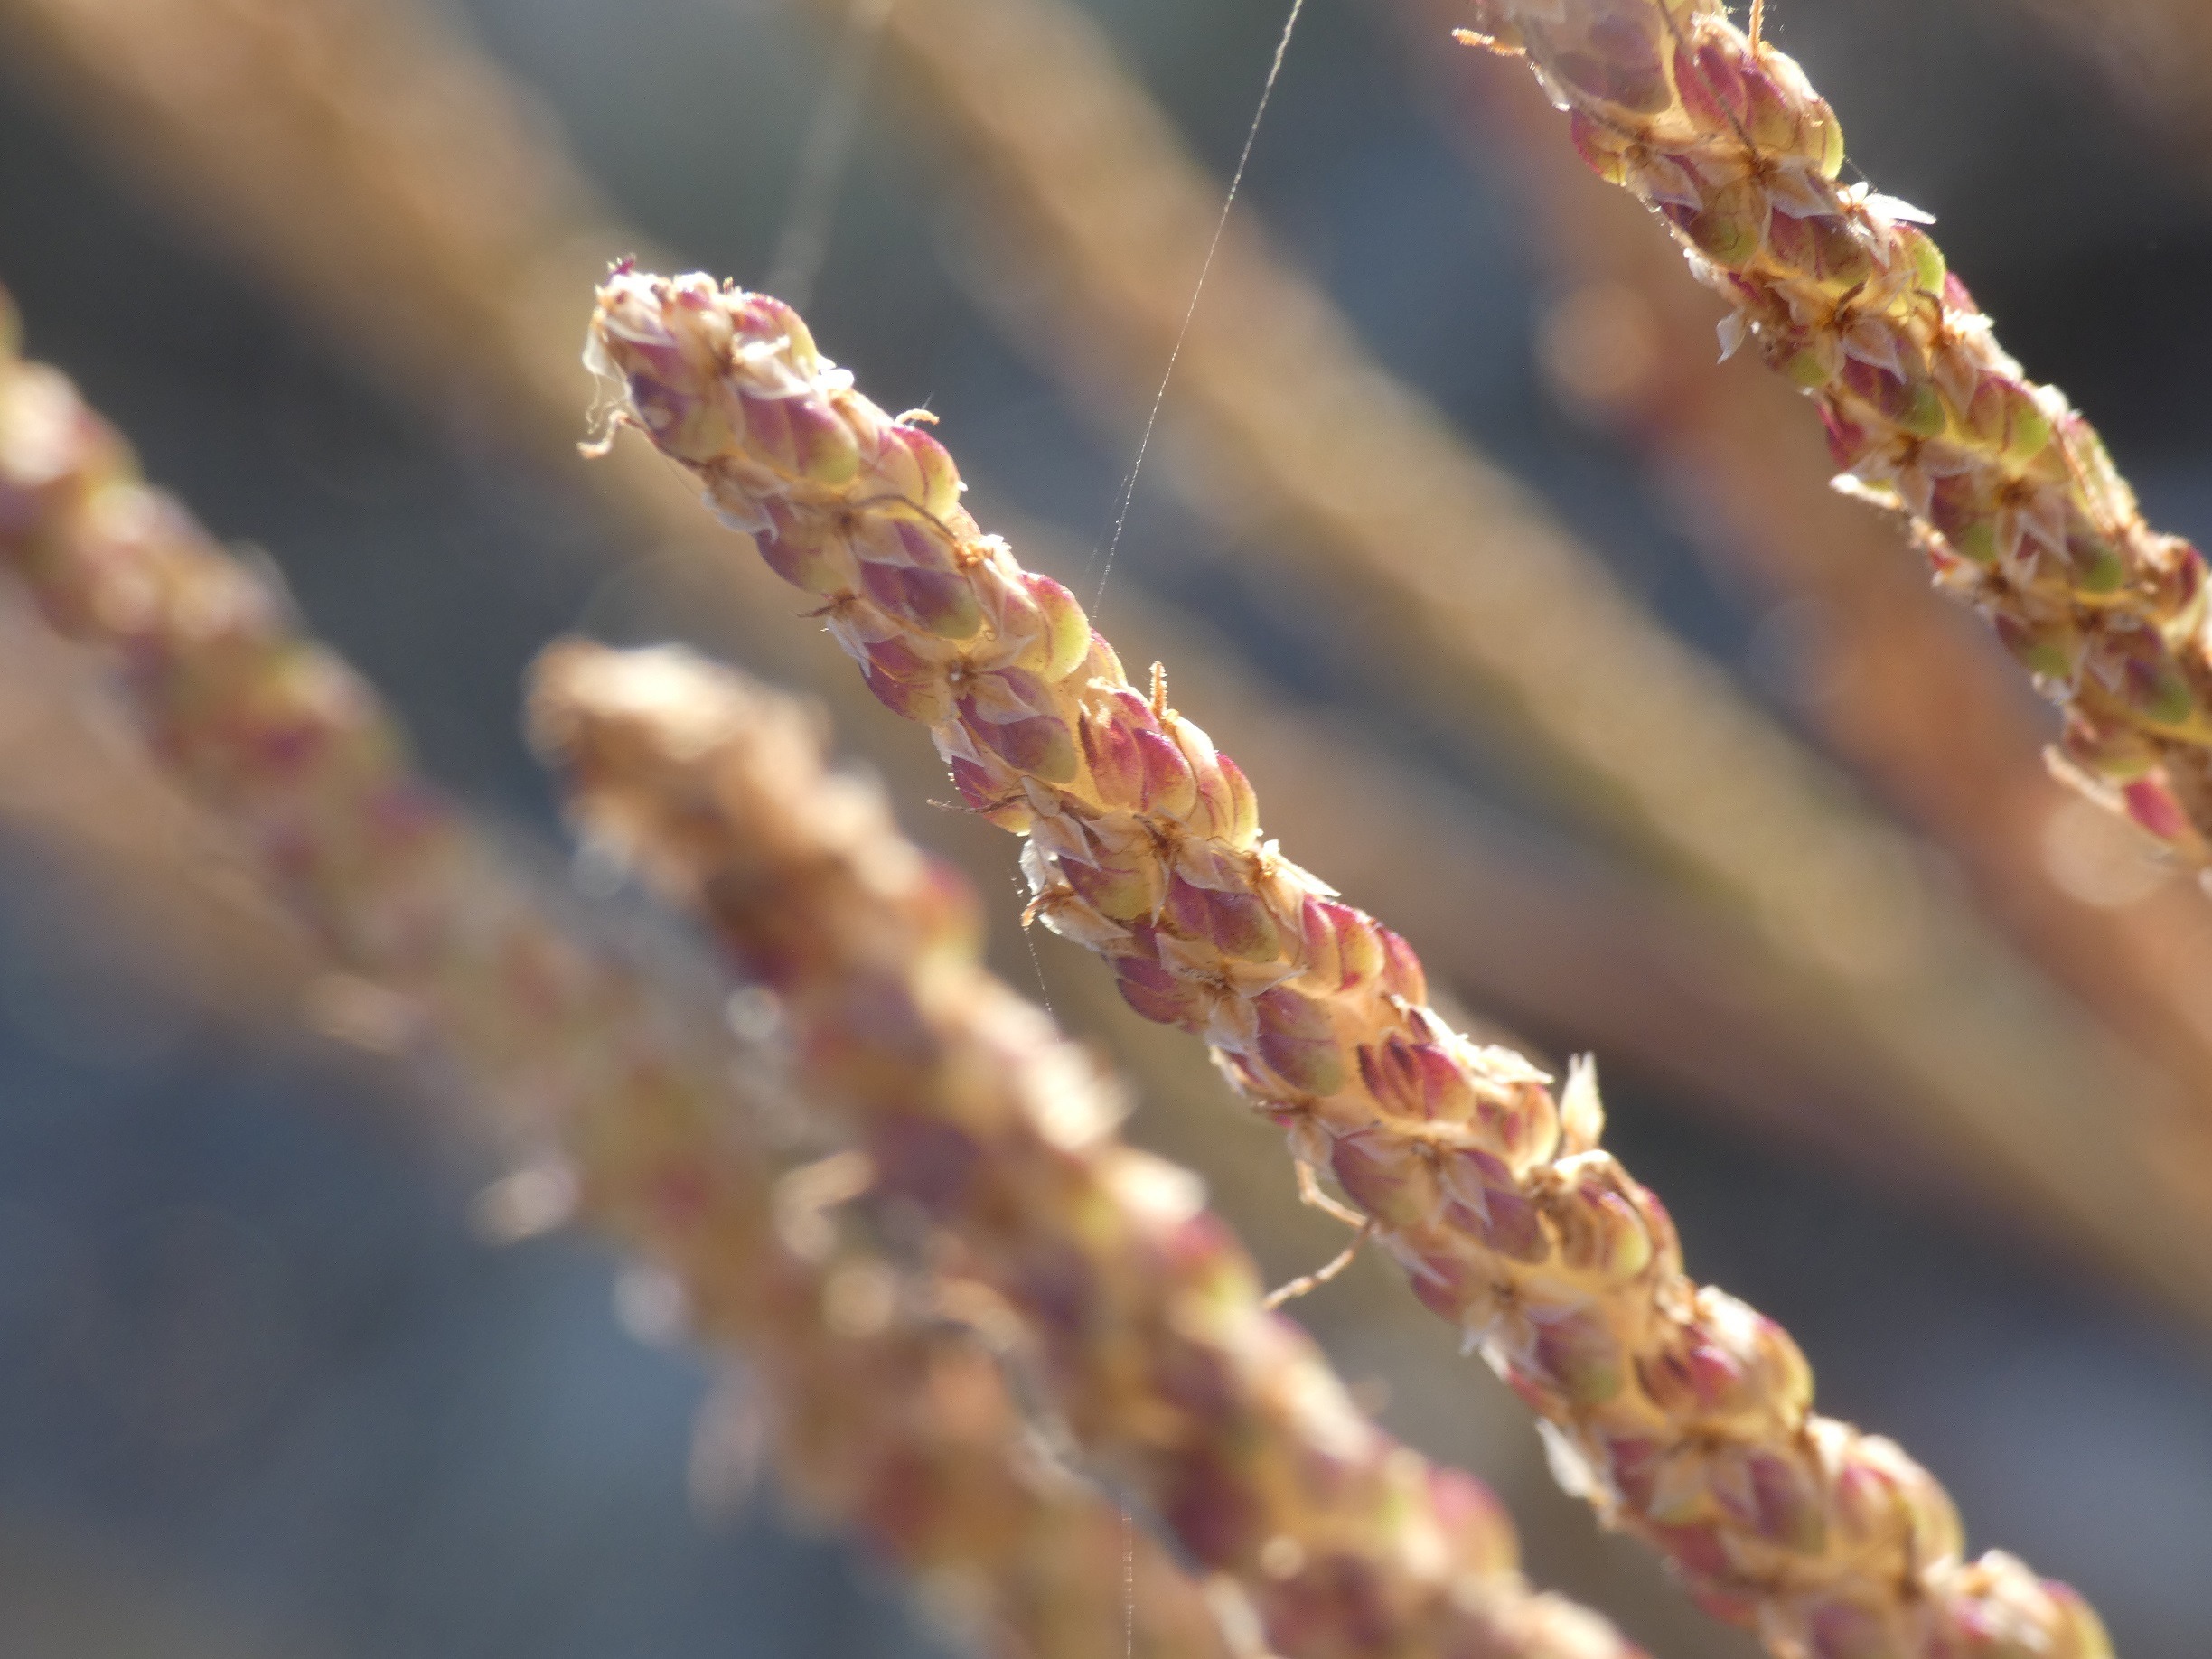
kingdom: Plantae
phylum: Tracheophyta
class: Magnoliopsida
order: Lamiales
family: Plantaginaceae
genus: Plantago
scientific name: Plantago maritima
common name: Strand-vejbred
